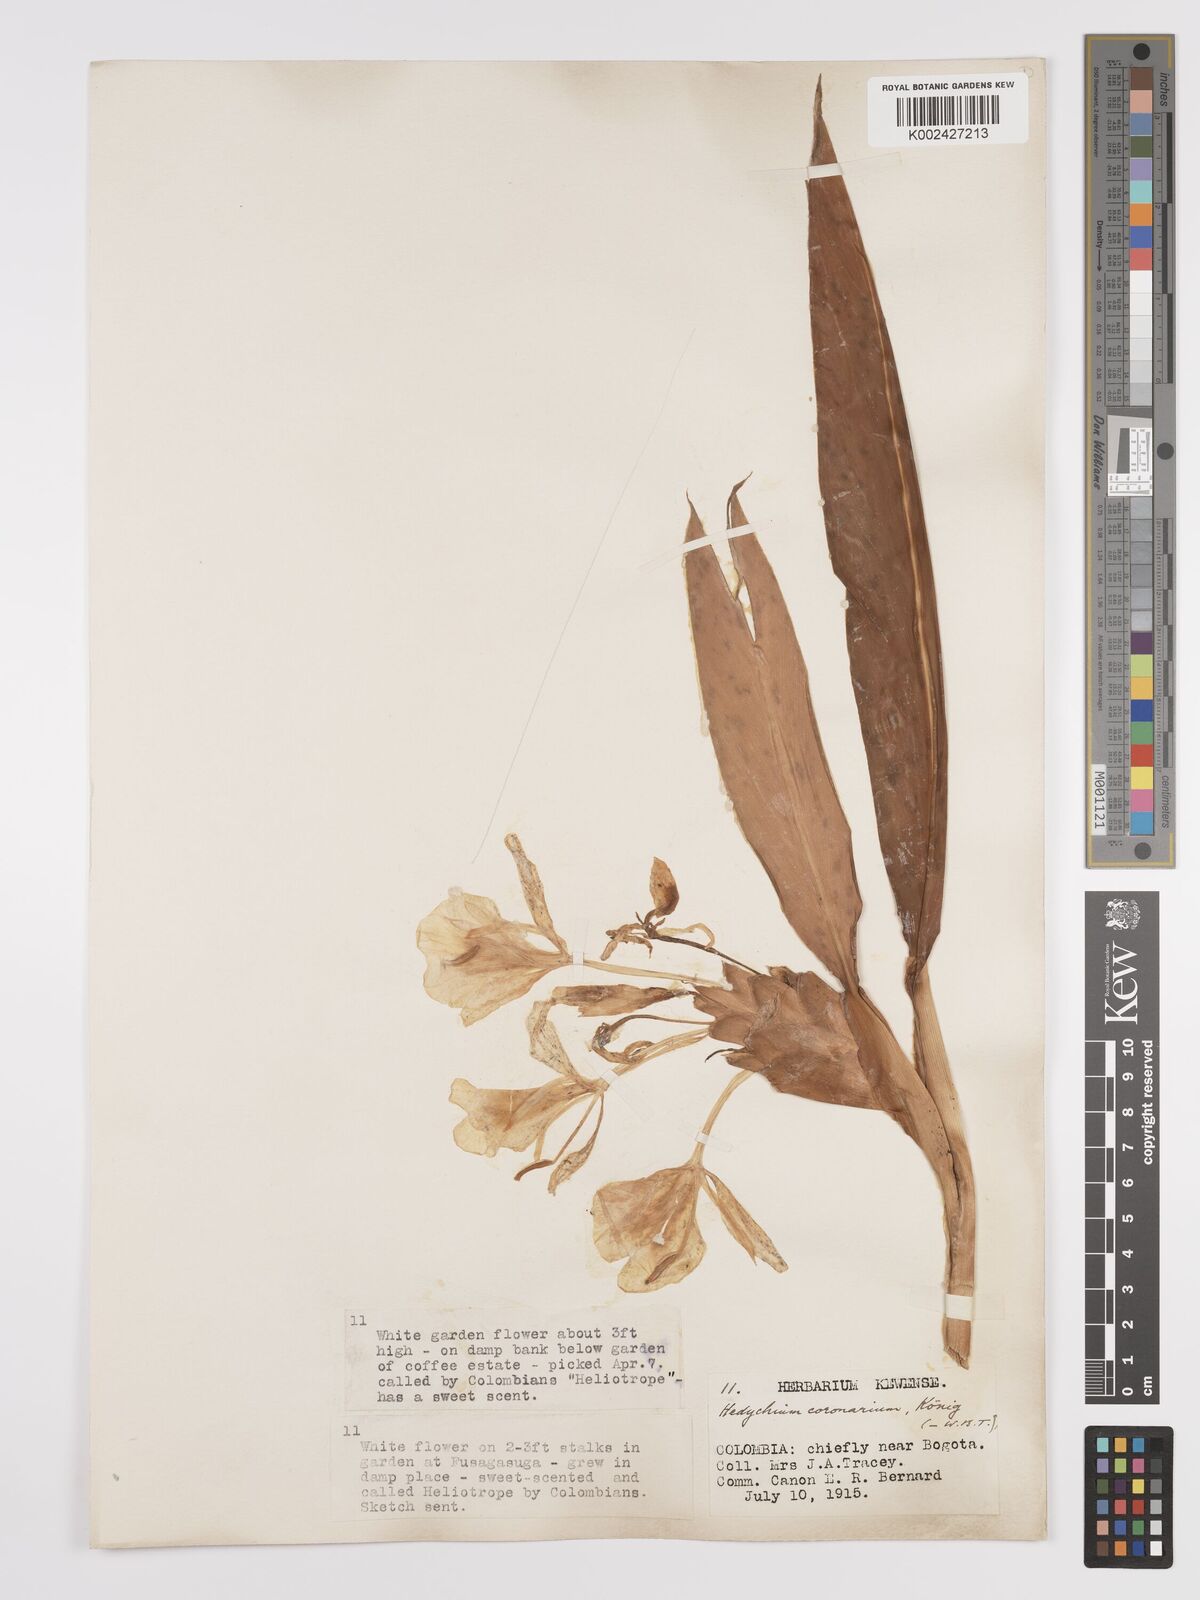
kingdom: Plantae
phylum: Tracheophyta
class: Liliopsida
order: Zingiberales
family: Zingiberaceae
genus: Hedychium
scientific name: Hedychium coronarium
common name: White garland-lily
